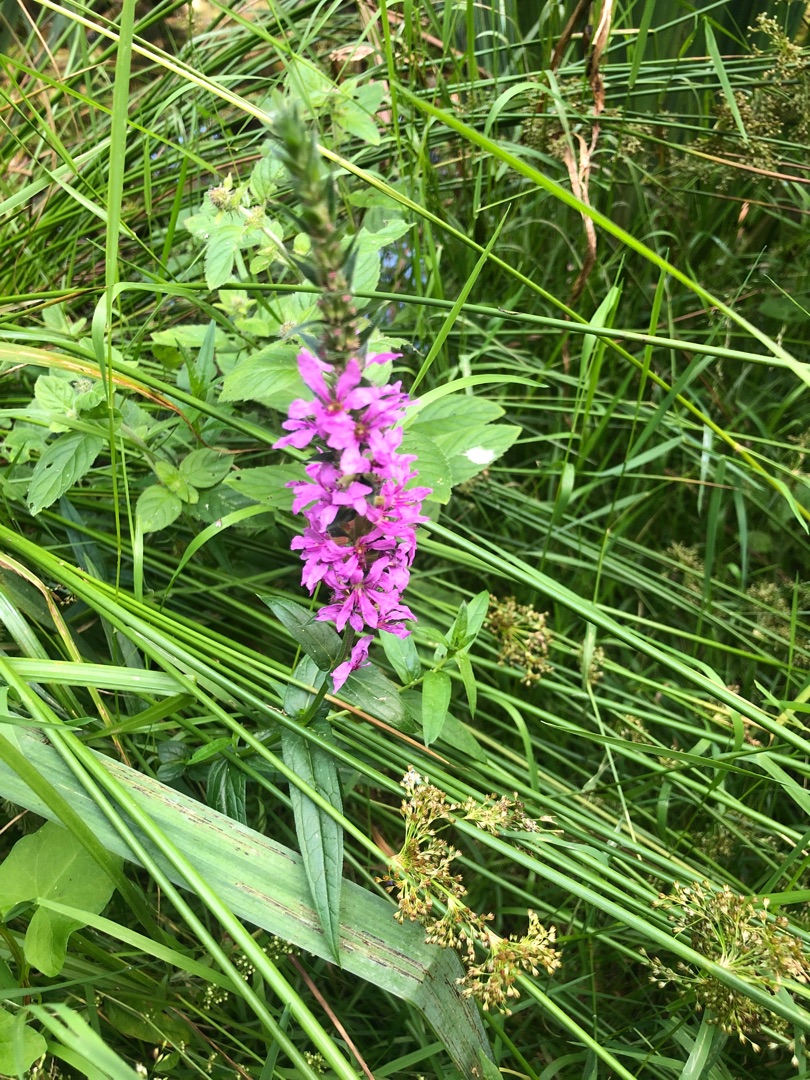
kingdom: Plantae
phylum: Tracheophyta
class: Magnoliopsida
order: Myrtales
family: Lythraceae
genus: Lythrum
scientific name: Lythrum salicaria
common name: Kattehale
